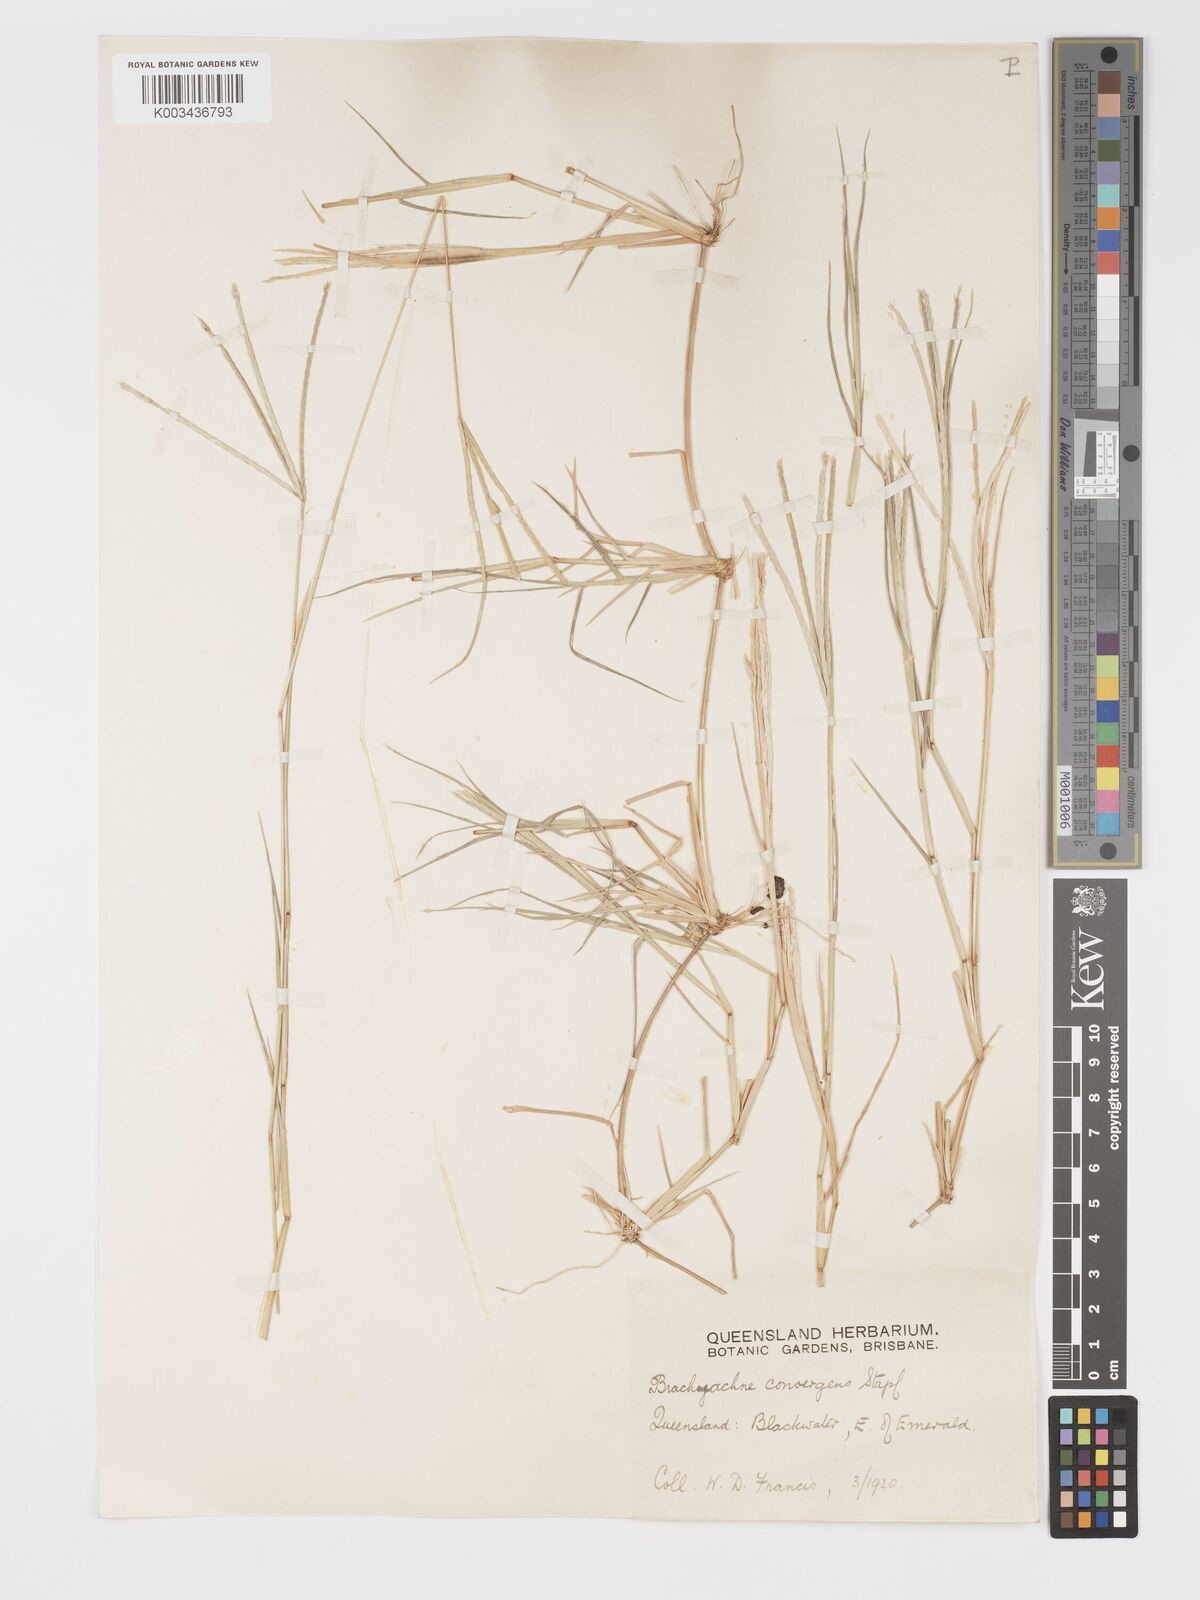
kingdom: Plantae
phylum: Tracheophyta
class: Liliopsida
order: Poales
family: Poaceae
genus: Cynodon
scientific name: Cynodon convergens
